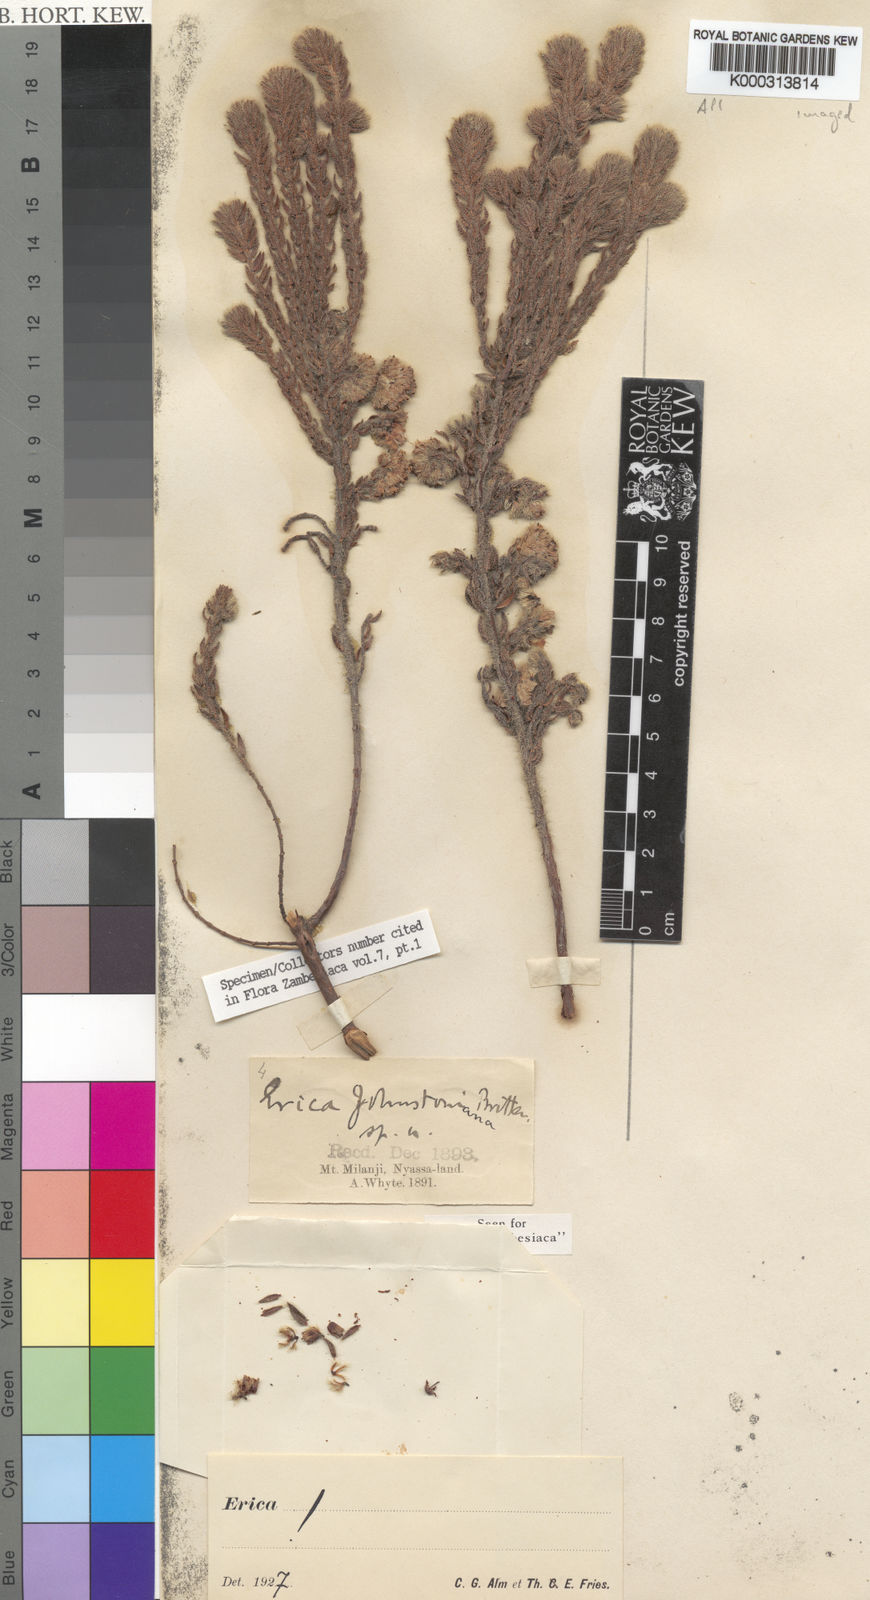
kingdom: Plantae
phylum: Tracheophyta
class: Magnoliopsida
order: Ericales
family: Ericaceae
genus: Erica
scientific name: Erica johnstoniana
